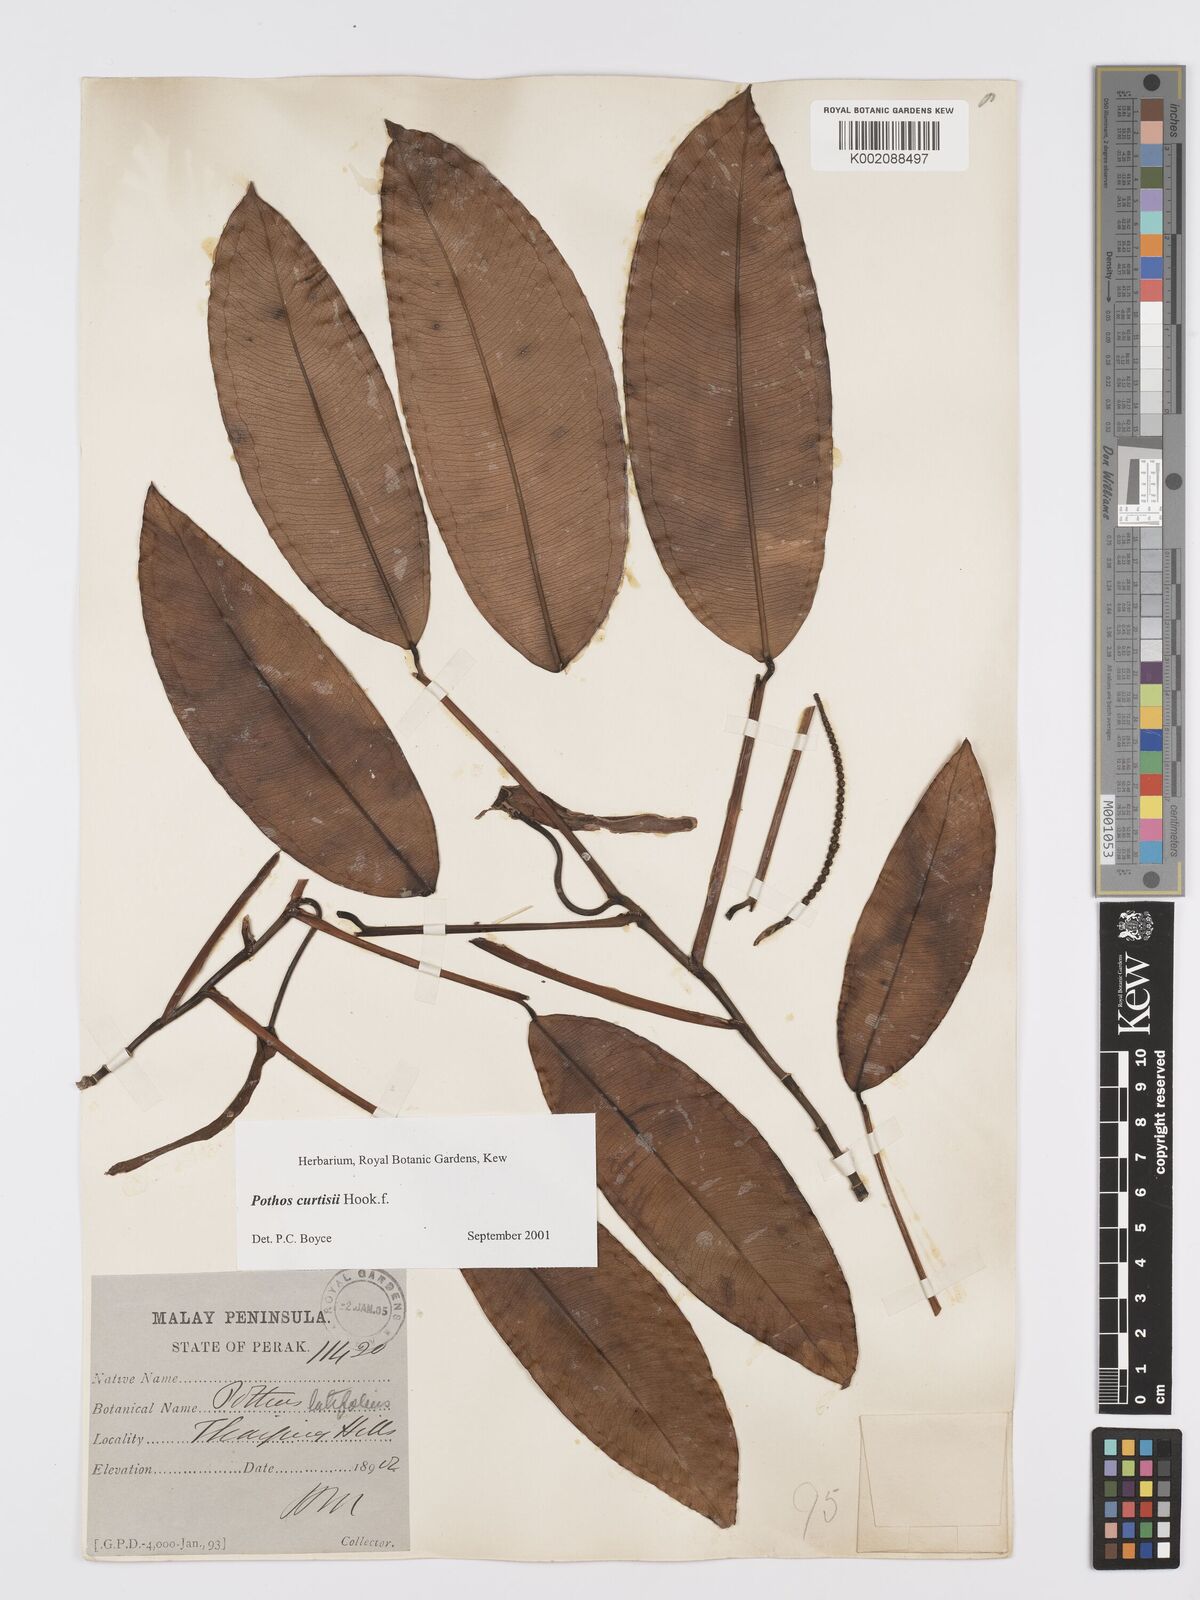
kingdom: Plantae
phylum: Tracheophyta
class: Liliopsida
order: Alismatales
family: Araceae
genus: Pothos
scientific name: Pothos curtisii
